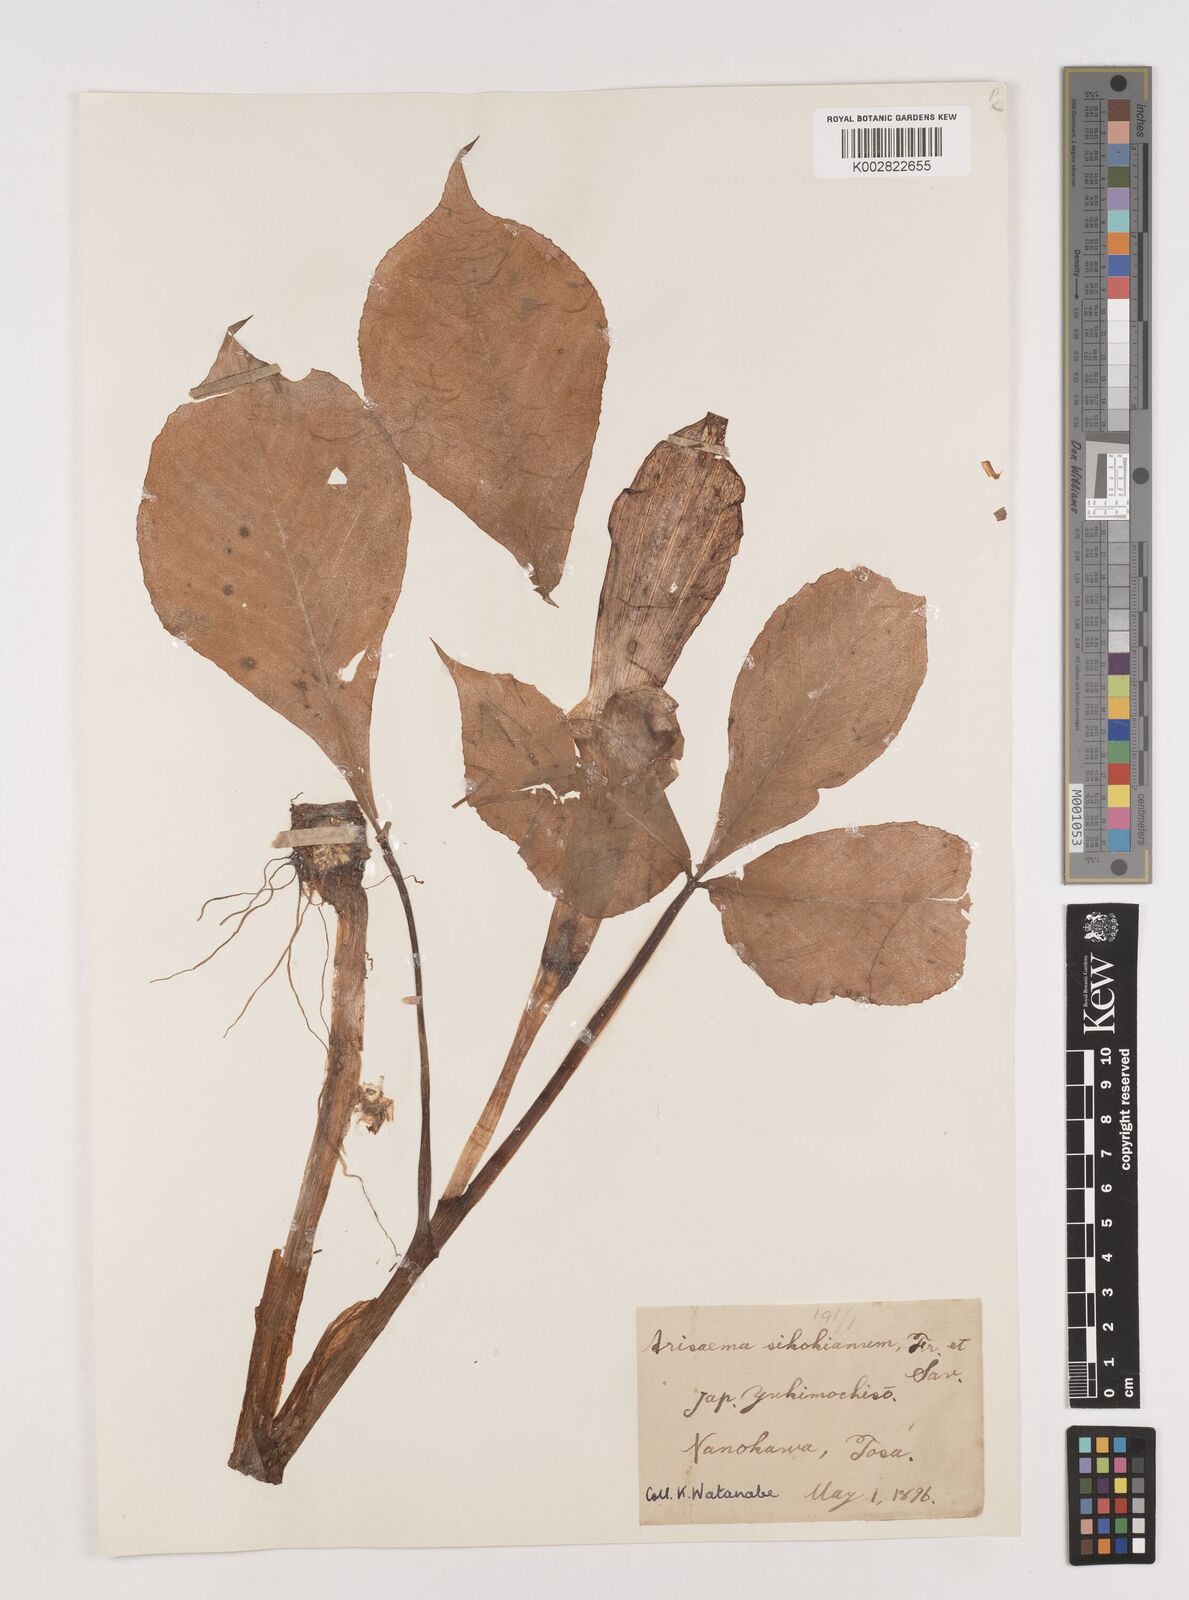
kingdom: Plantae
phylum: Tracheophyta
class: Liliopsida
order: Alismatales
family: Araceae
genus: Arisaema
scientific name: Arisaema sikokianum
